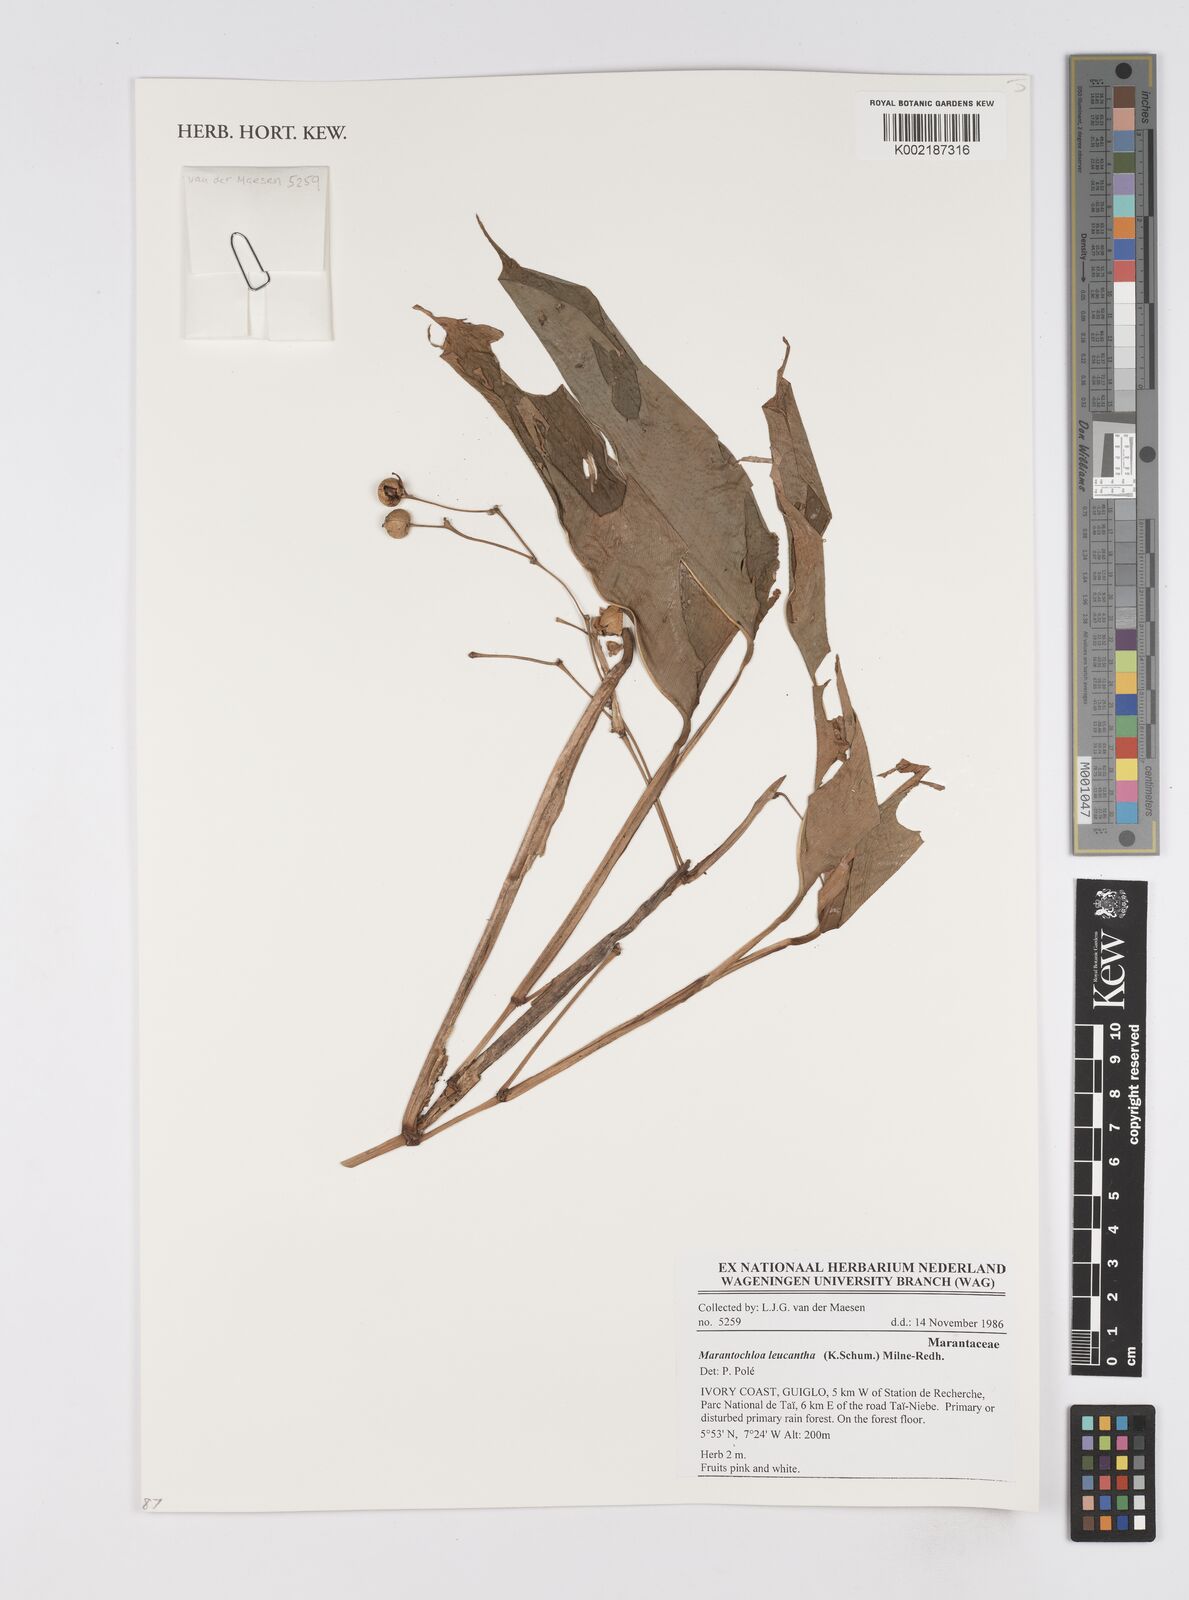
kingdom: Plantae
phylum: Tracheophyta
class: Liliopsida
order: Zingiberales
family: Marantaceae
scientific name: Marantaceae
